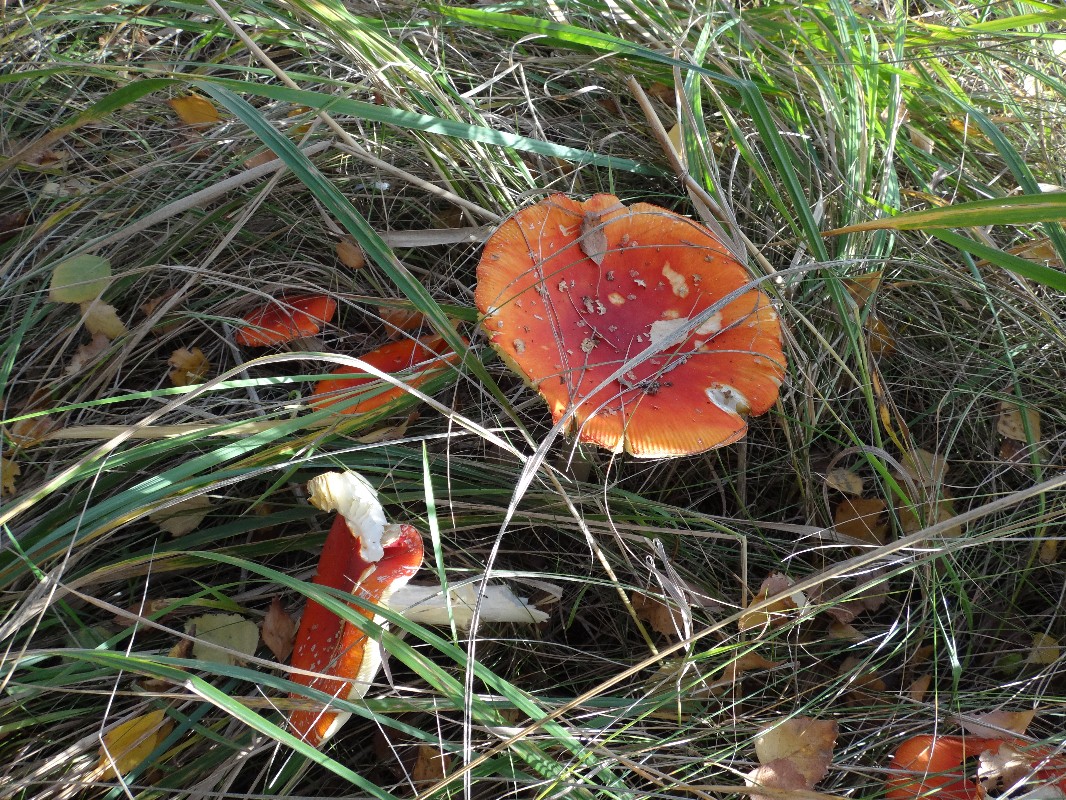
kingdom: Fungi
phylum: Basidiomycota
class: Agaricomycetes
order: Agaricales
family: Amanitaceae
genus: Amanita
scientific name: Amanita muscaria
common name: rød fluesvamp
